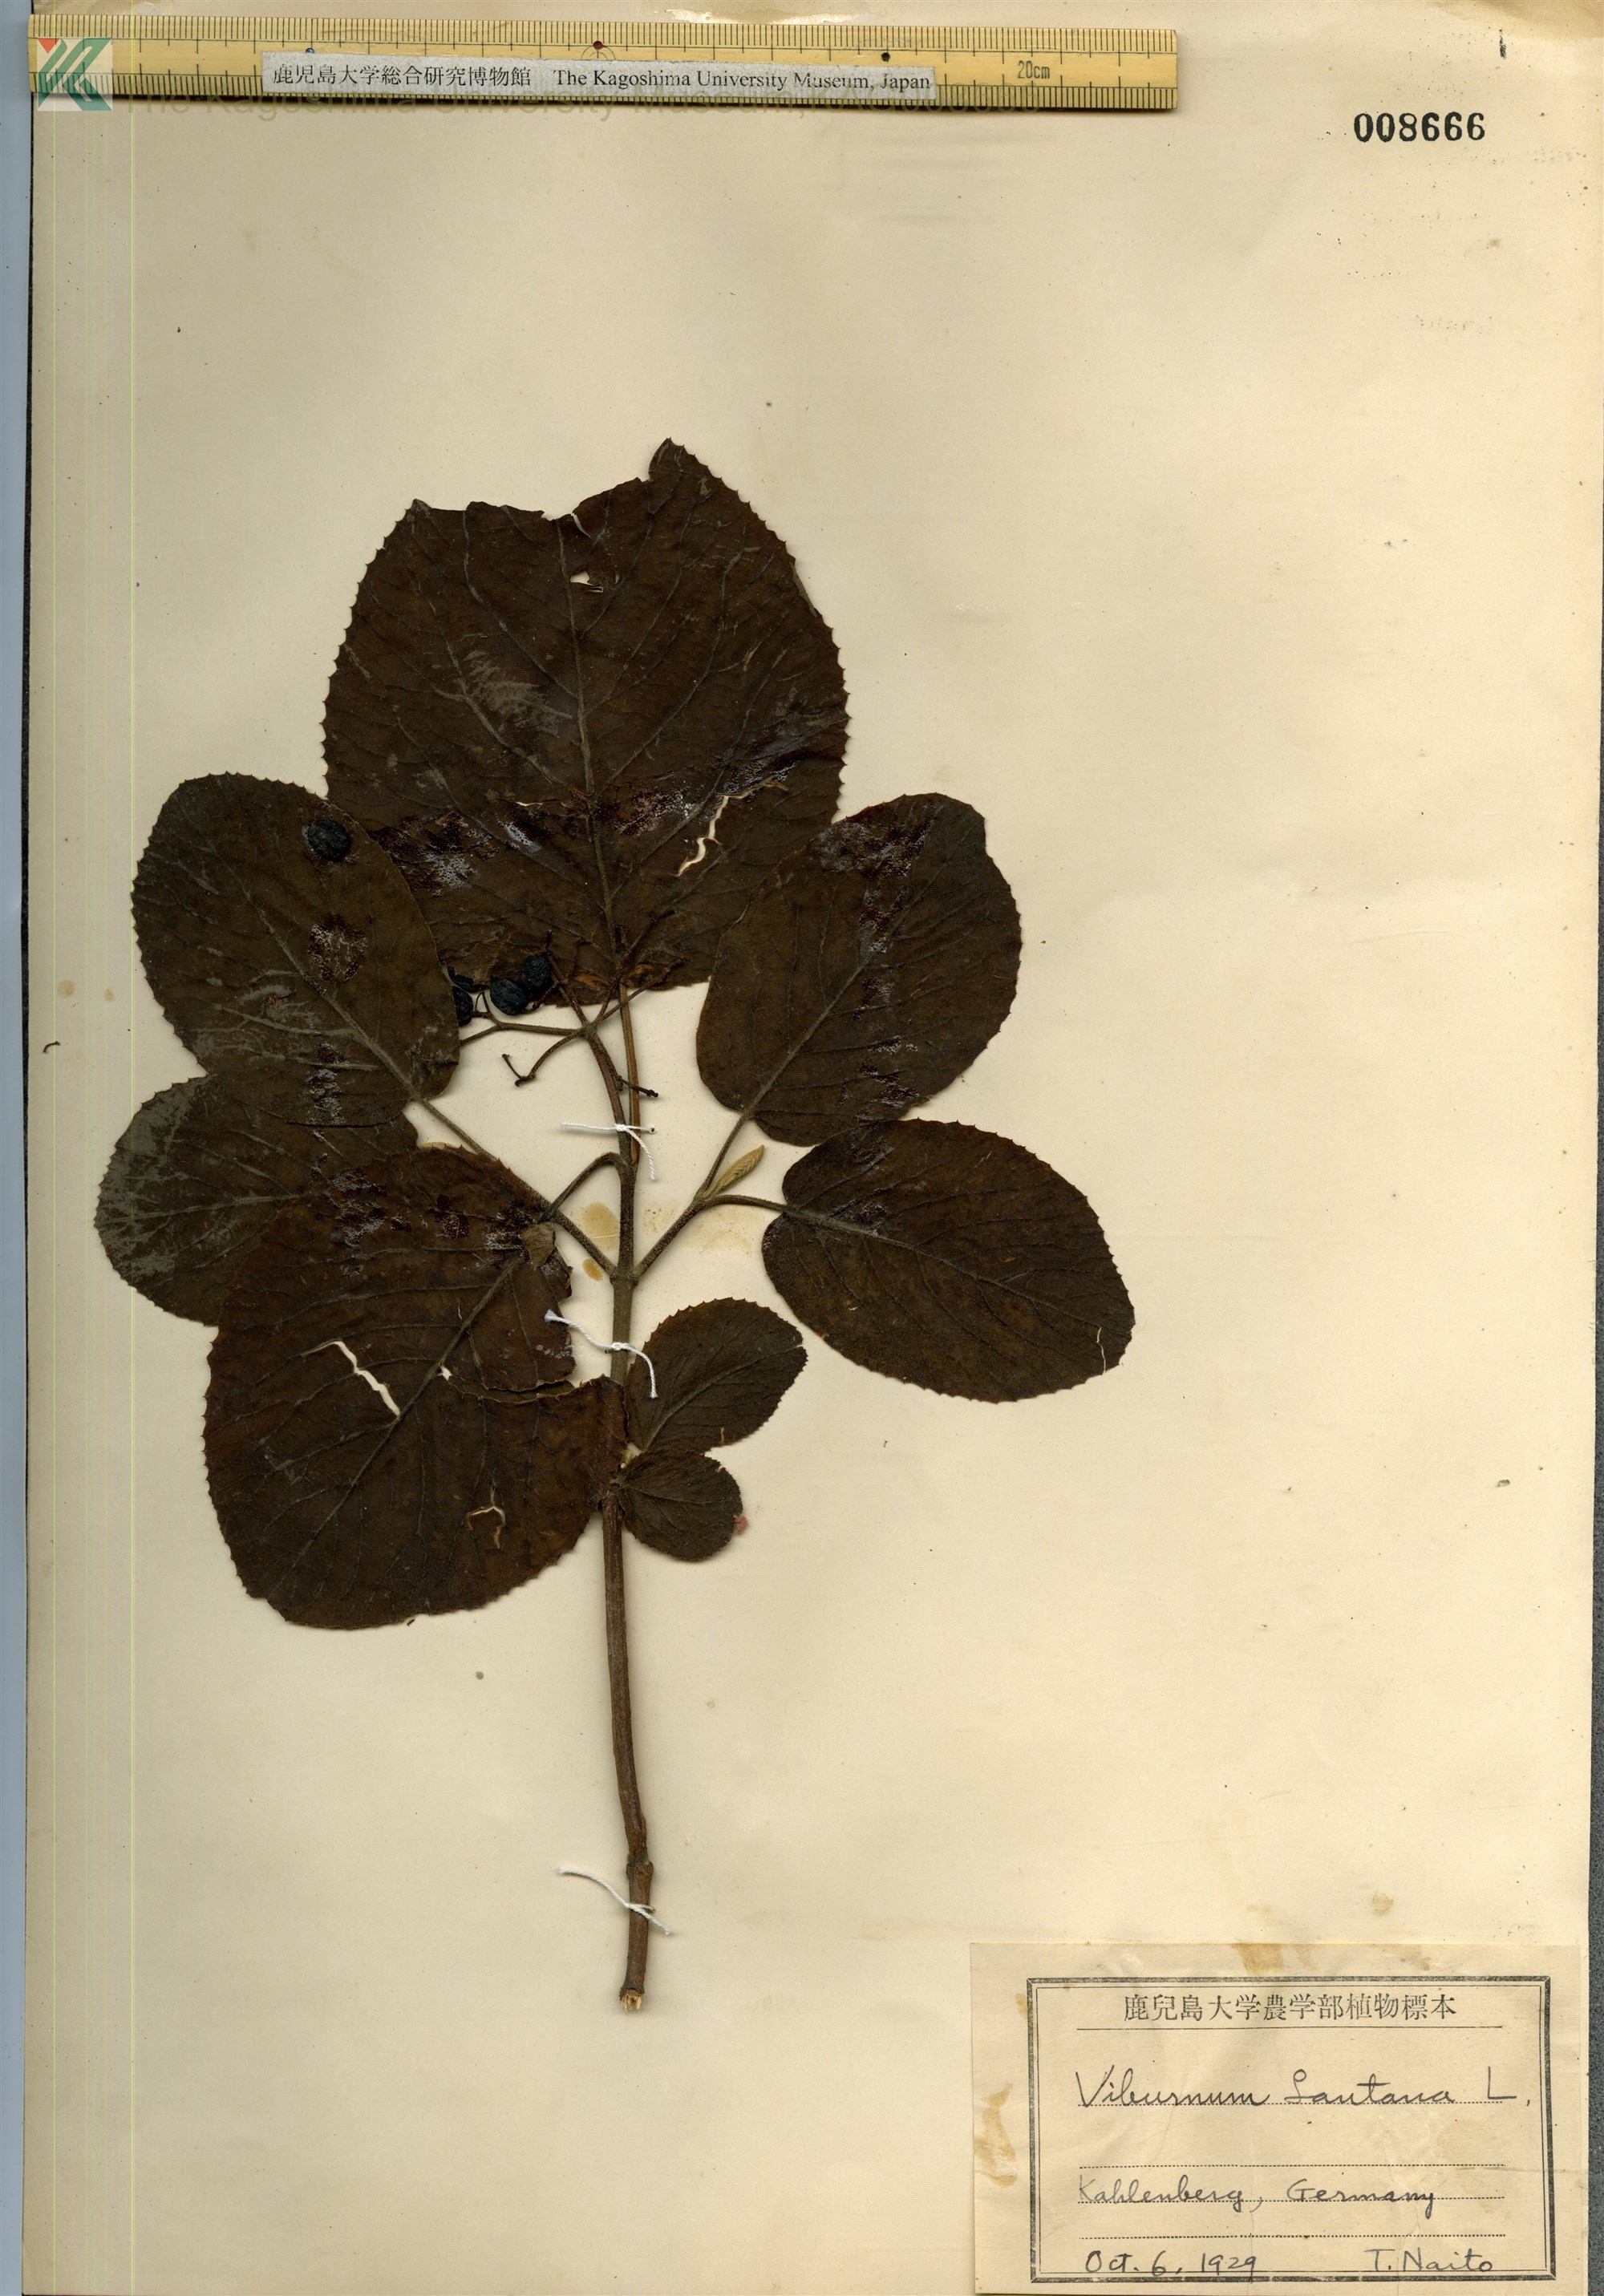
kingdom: Plantae
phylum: Tracheophyta
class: Magnoliopsida
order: Dipsacales
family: Viburnaceae
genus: Viburnum
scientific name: Viburnum lantana
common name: Wayfaring tree
